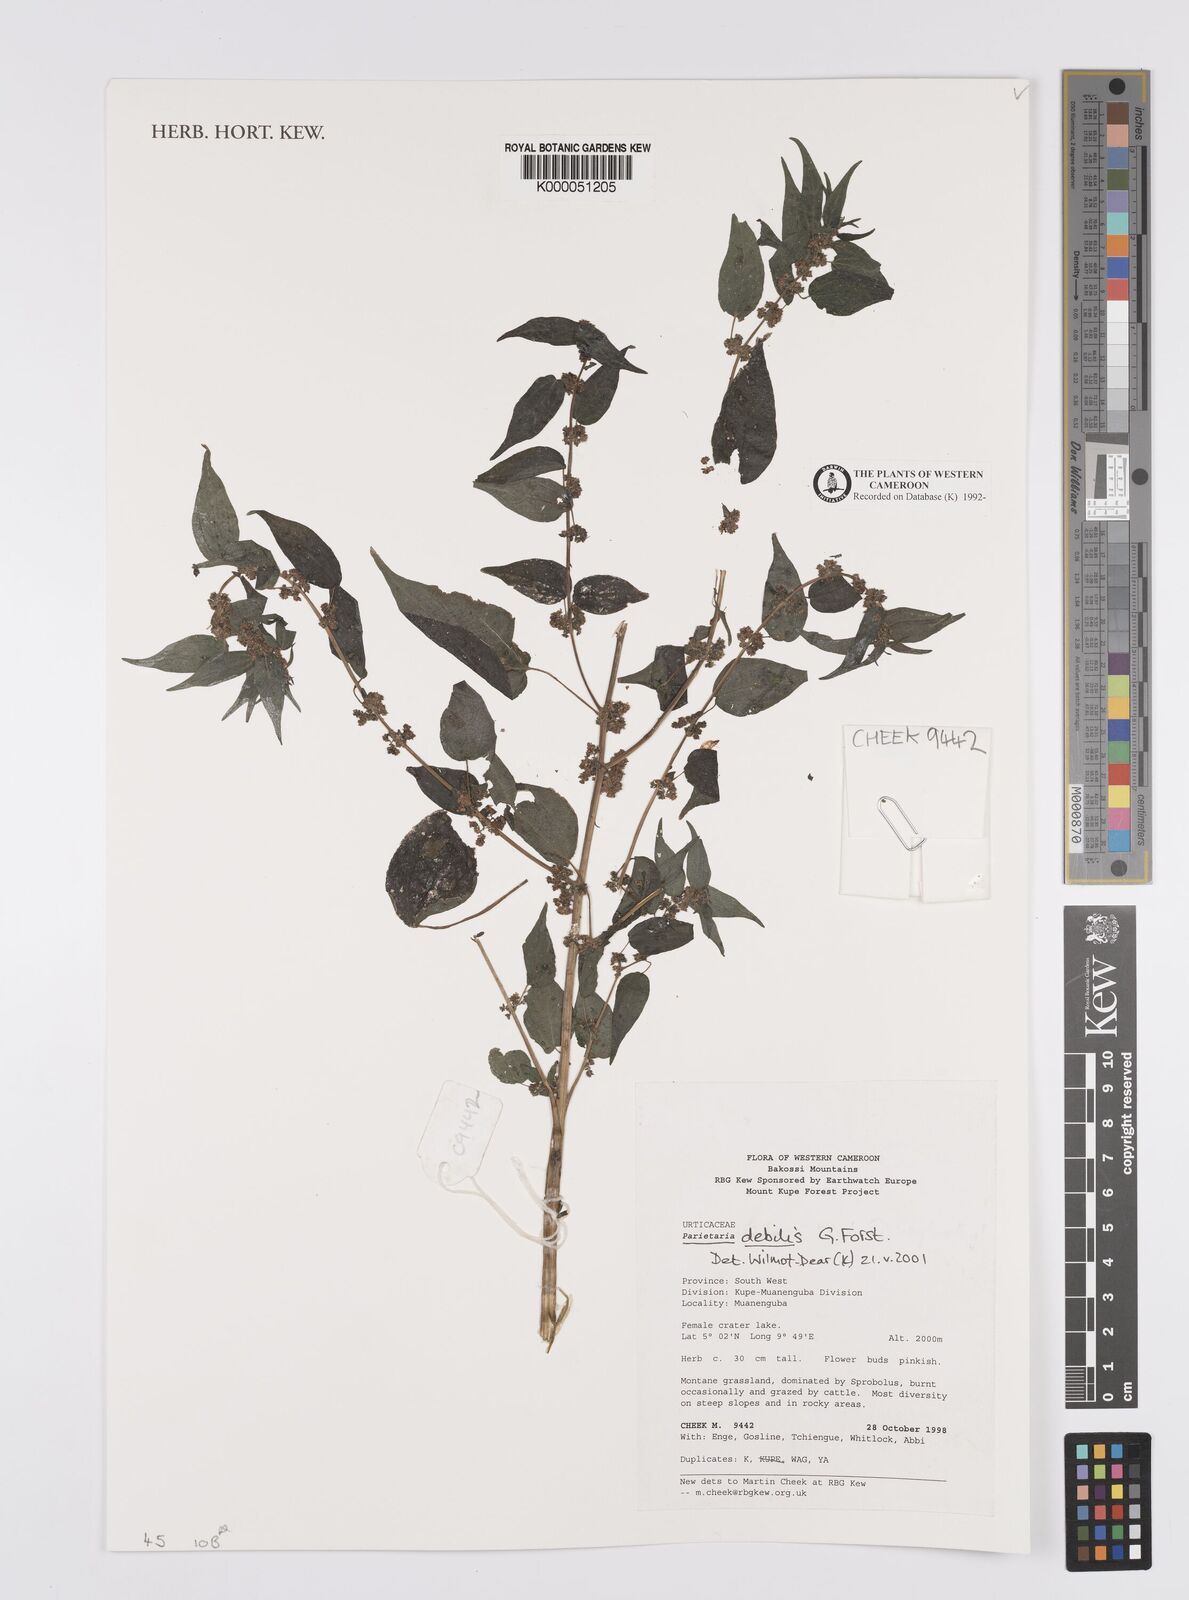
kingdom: Plantae
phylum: Tracheophyta
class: Magnoliopsida
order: Rosales
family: Urticaceae
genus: Parietaria
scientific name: Parietaria debilis
